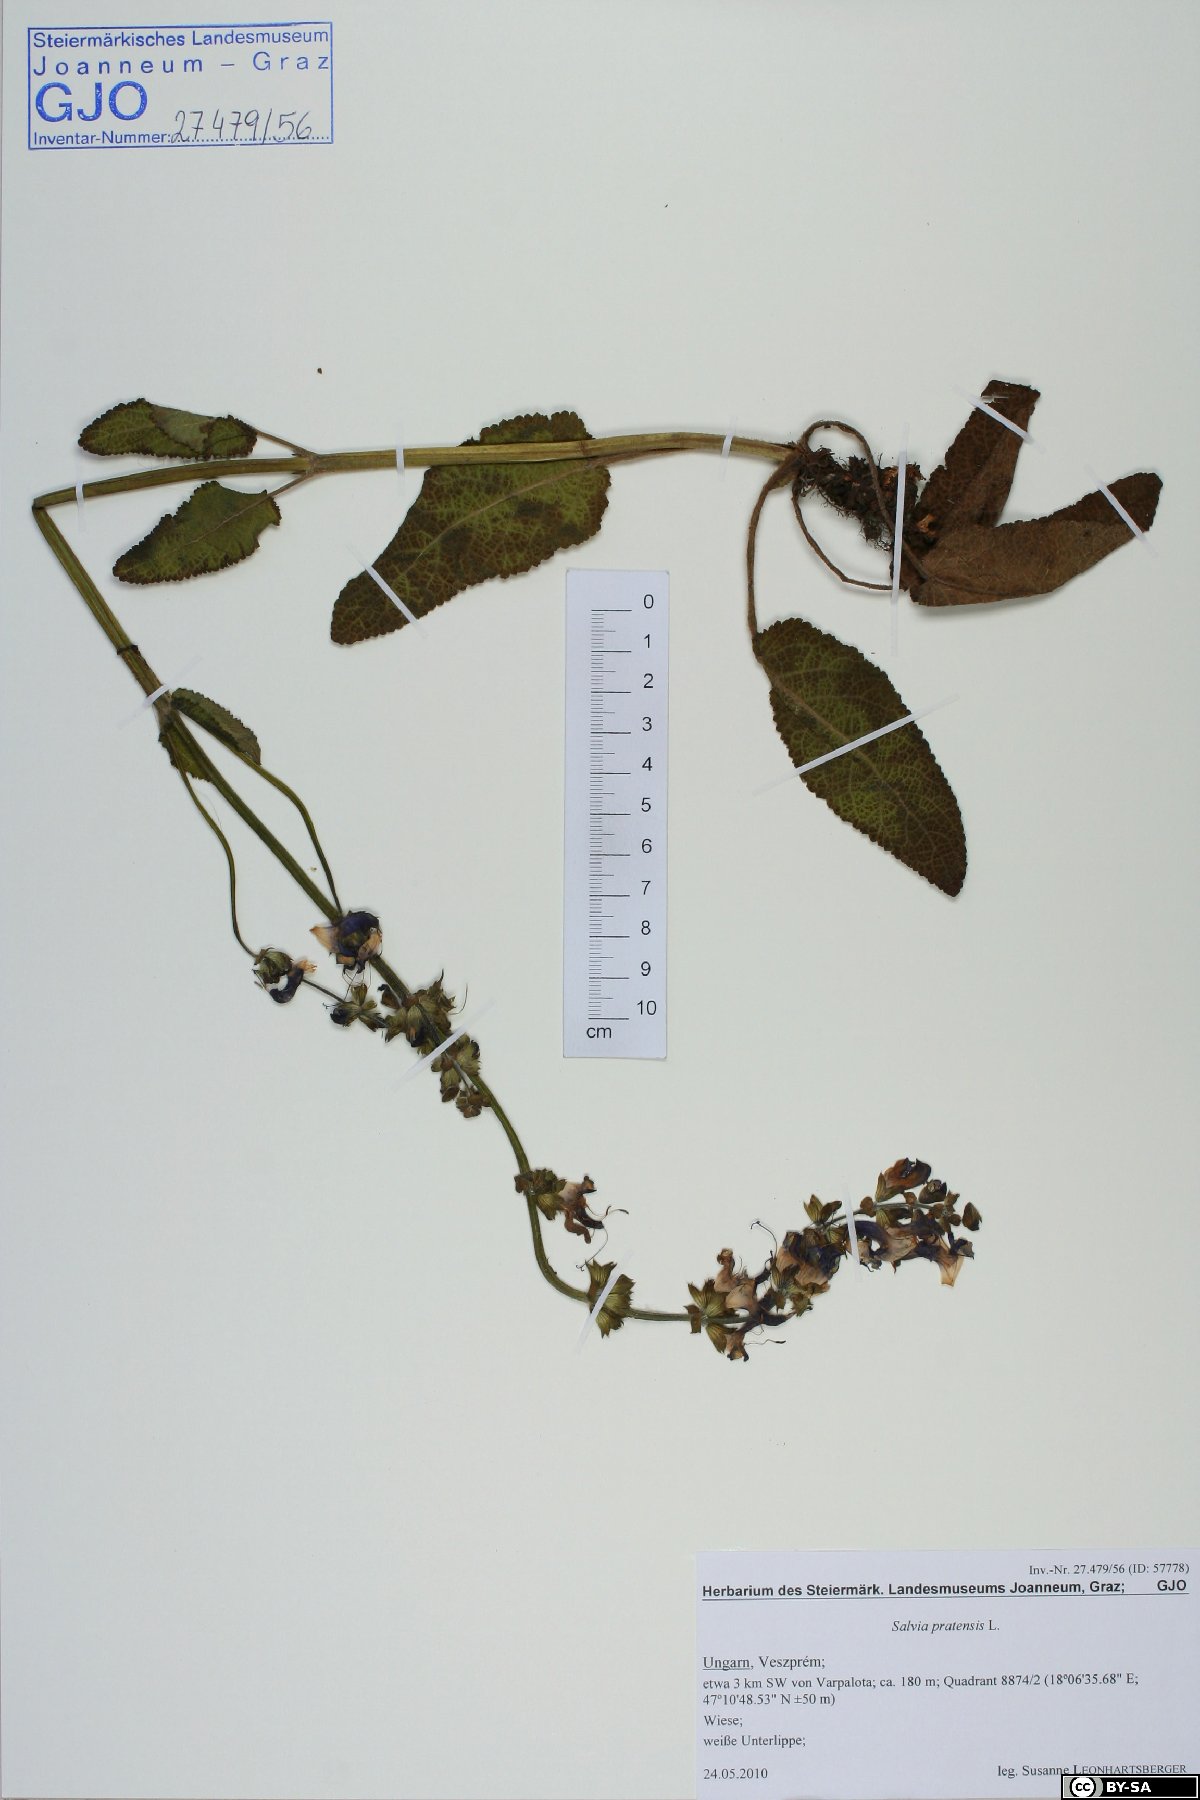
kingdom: Plantae
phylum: Tracheophyta
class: Magnoliopsida
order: Lamiales
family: Lamiaceae
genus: Salvia
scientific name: Salvia pratensis
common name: Meadow sage
